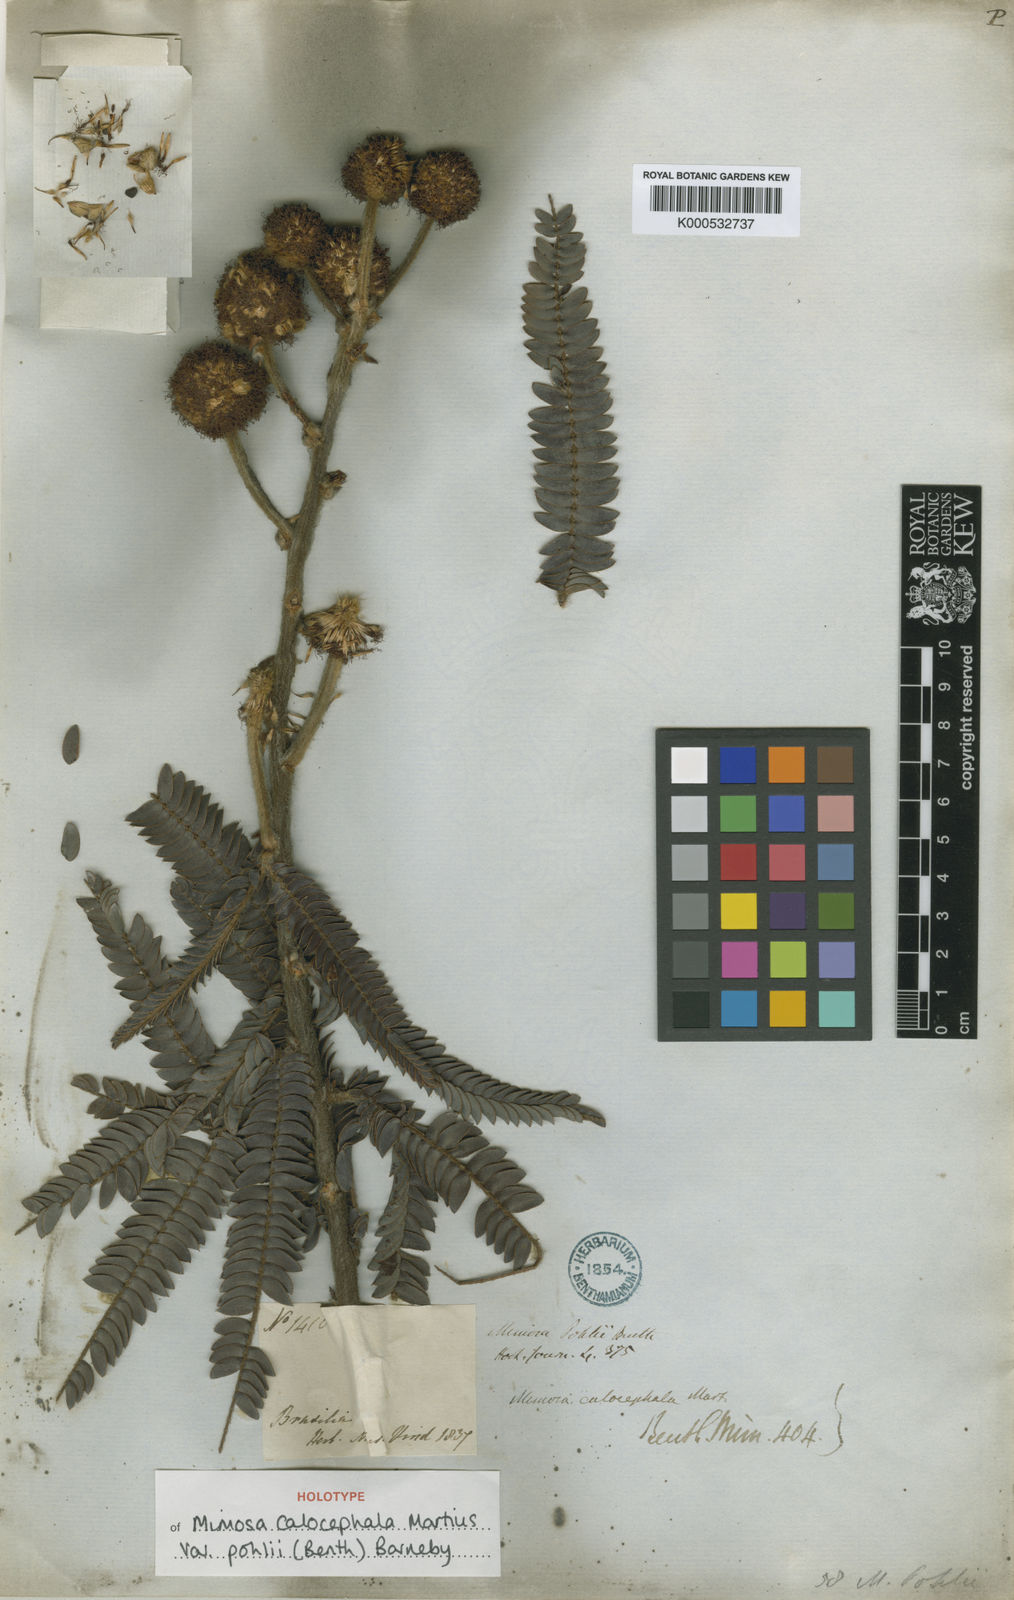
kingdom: Plantae
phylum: Tracheophyta
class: Magnoliopsida
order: Fabales
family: Fabaceae
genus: Mimosa
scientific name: Mimosa calocephala
